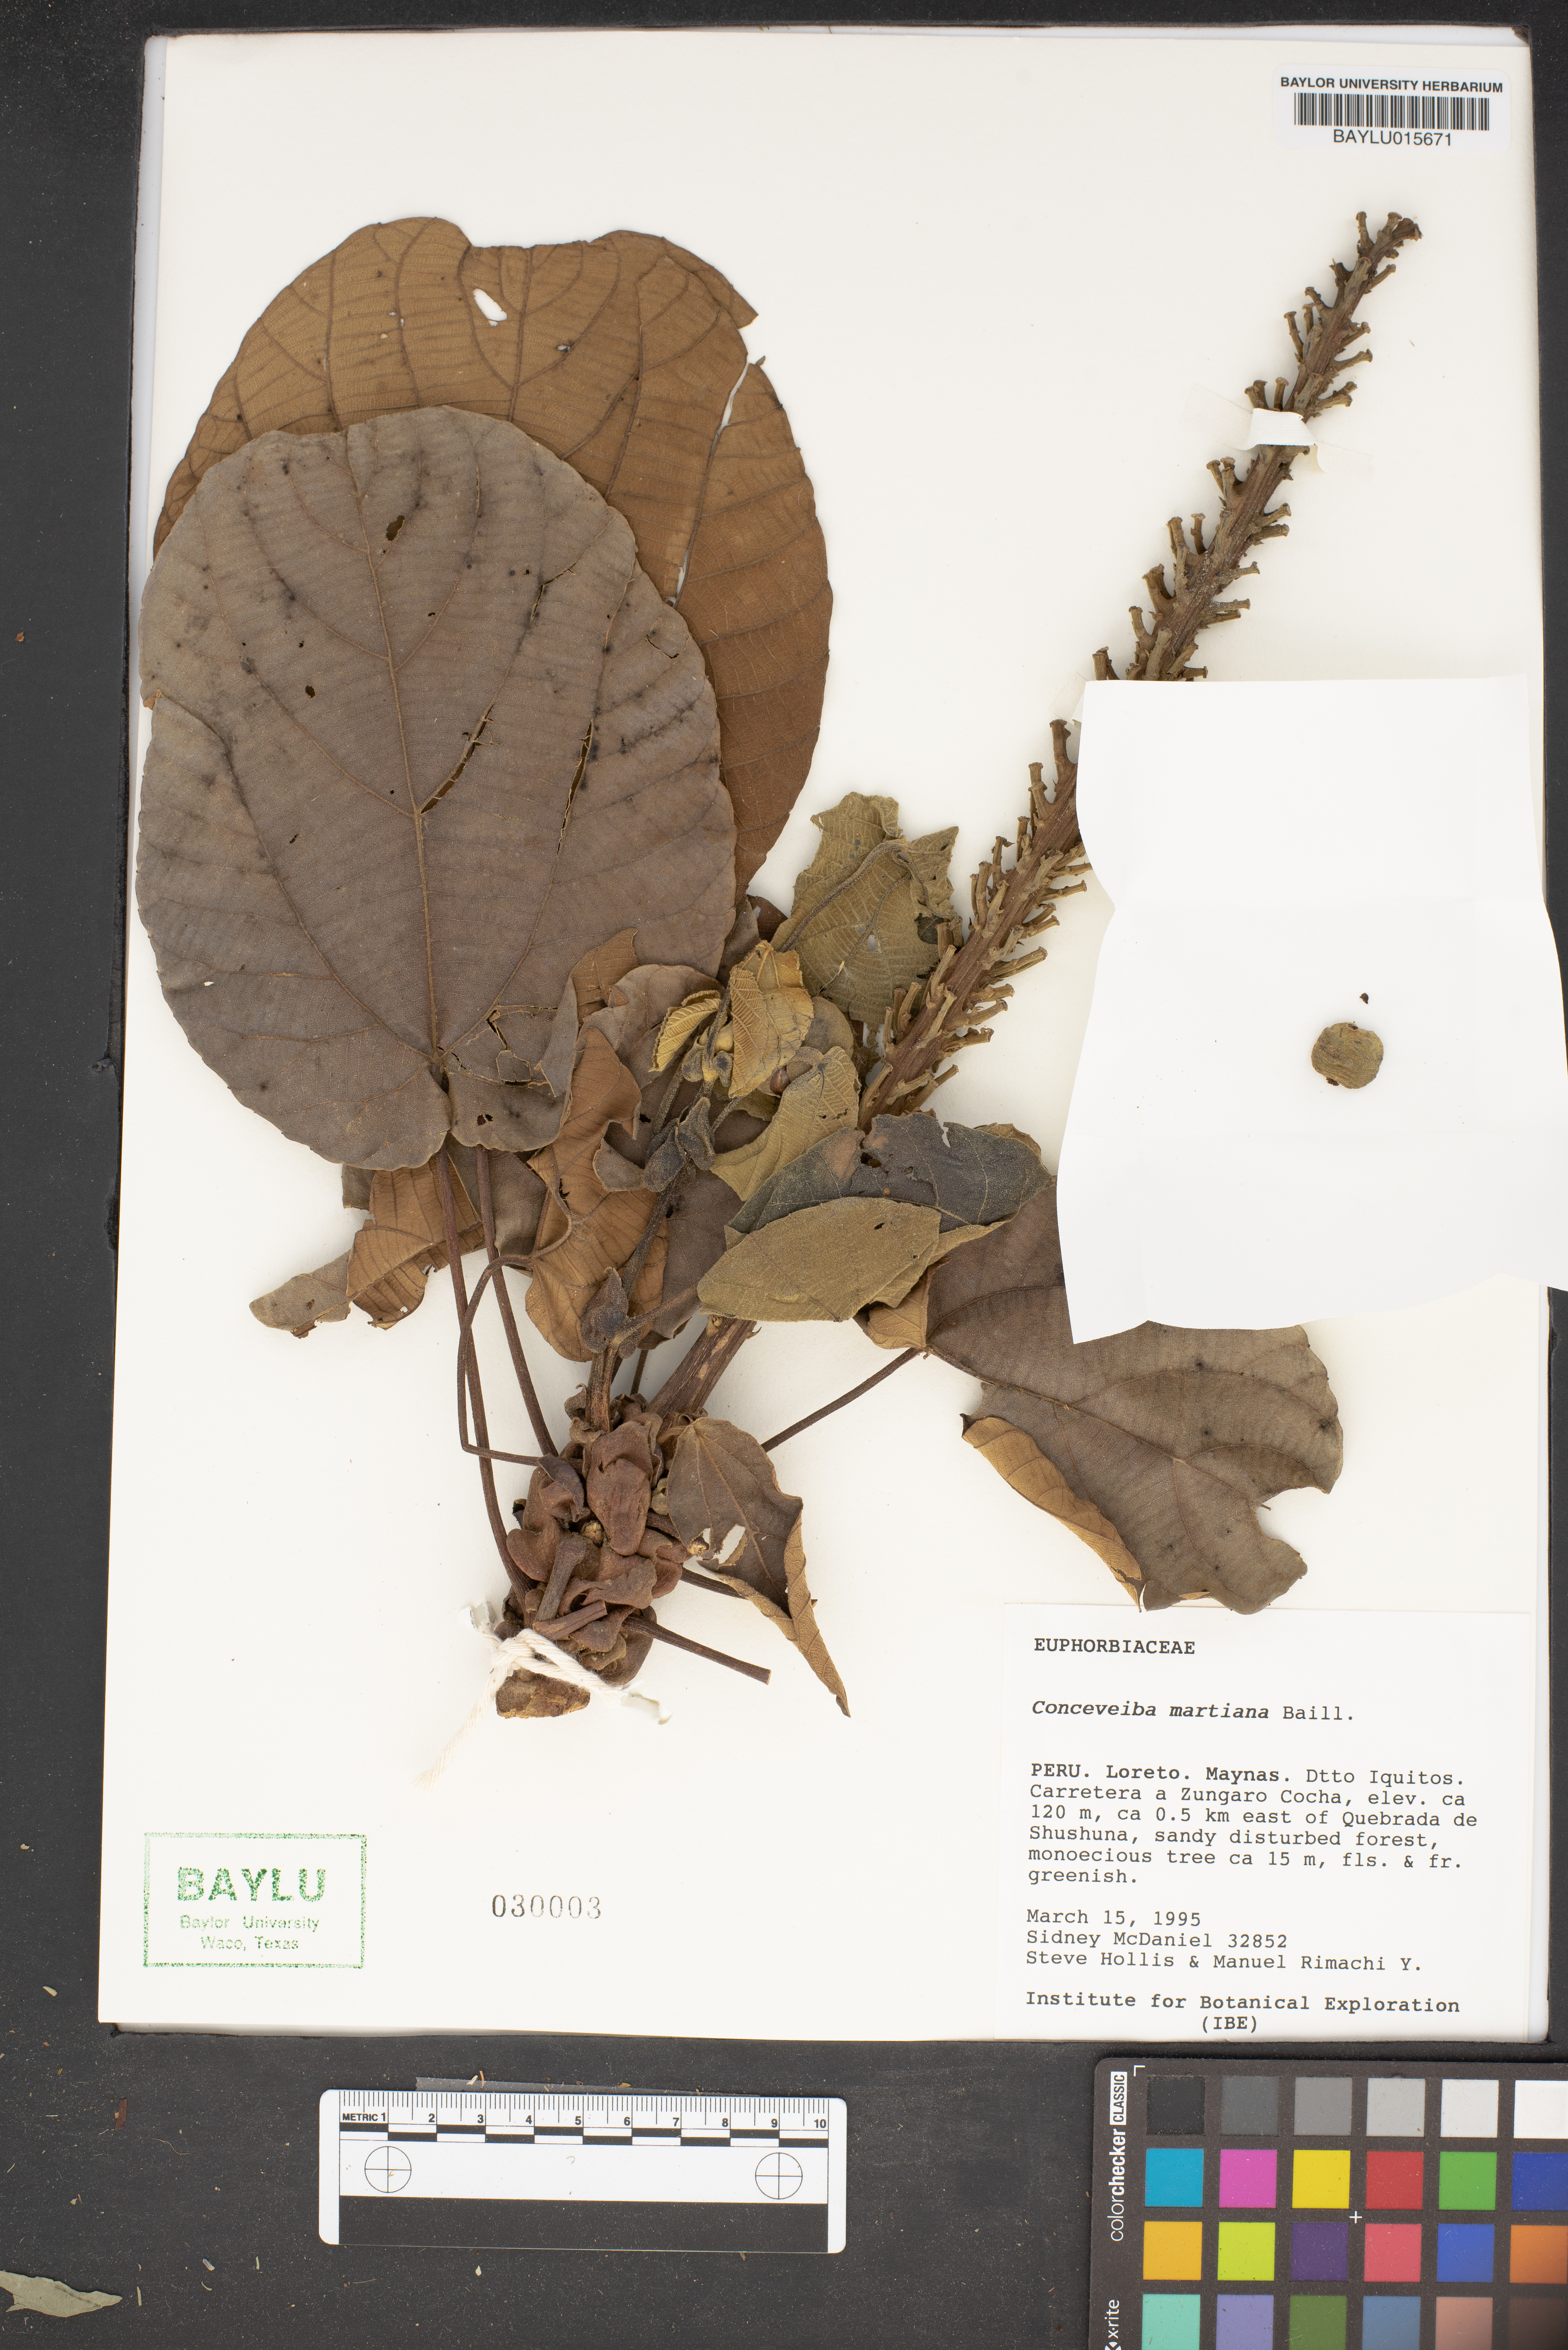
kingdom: Plantae
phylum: Tracheophyta
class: Magnoliopsida
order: Malpighiales
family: Euphorbiaceae
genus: Conceveiba
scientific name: Conceveiba martiana
